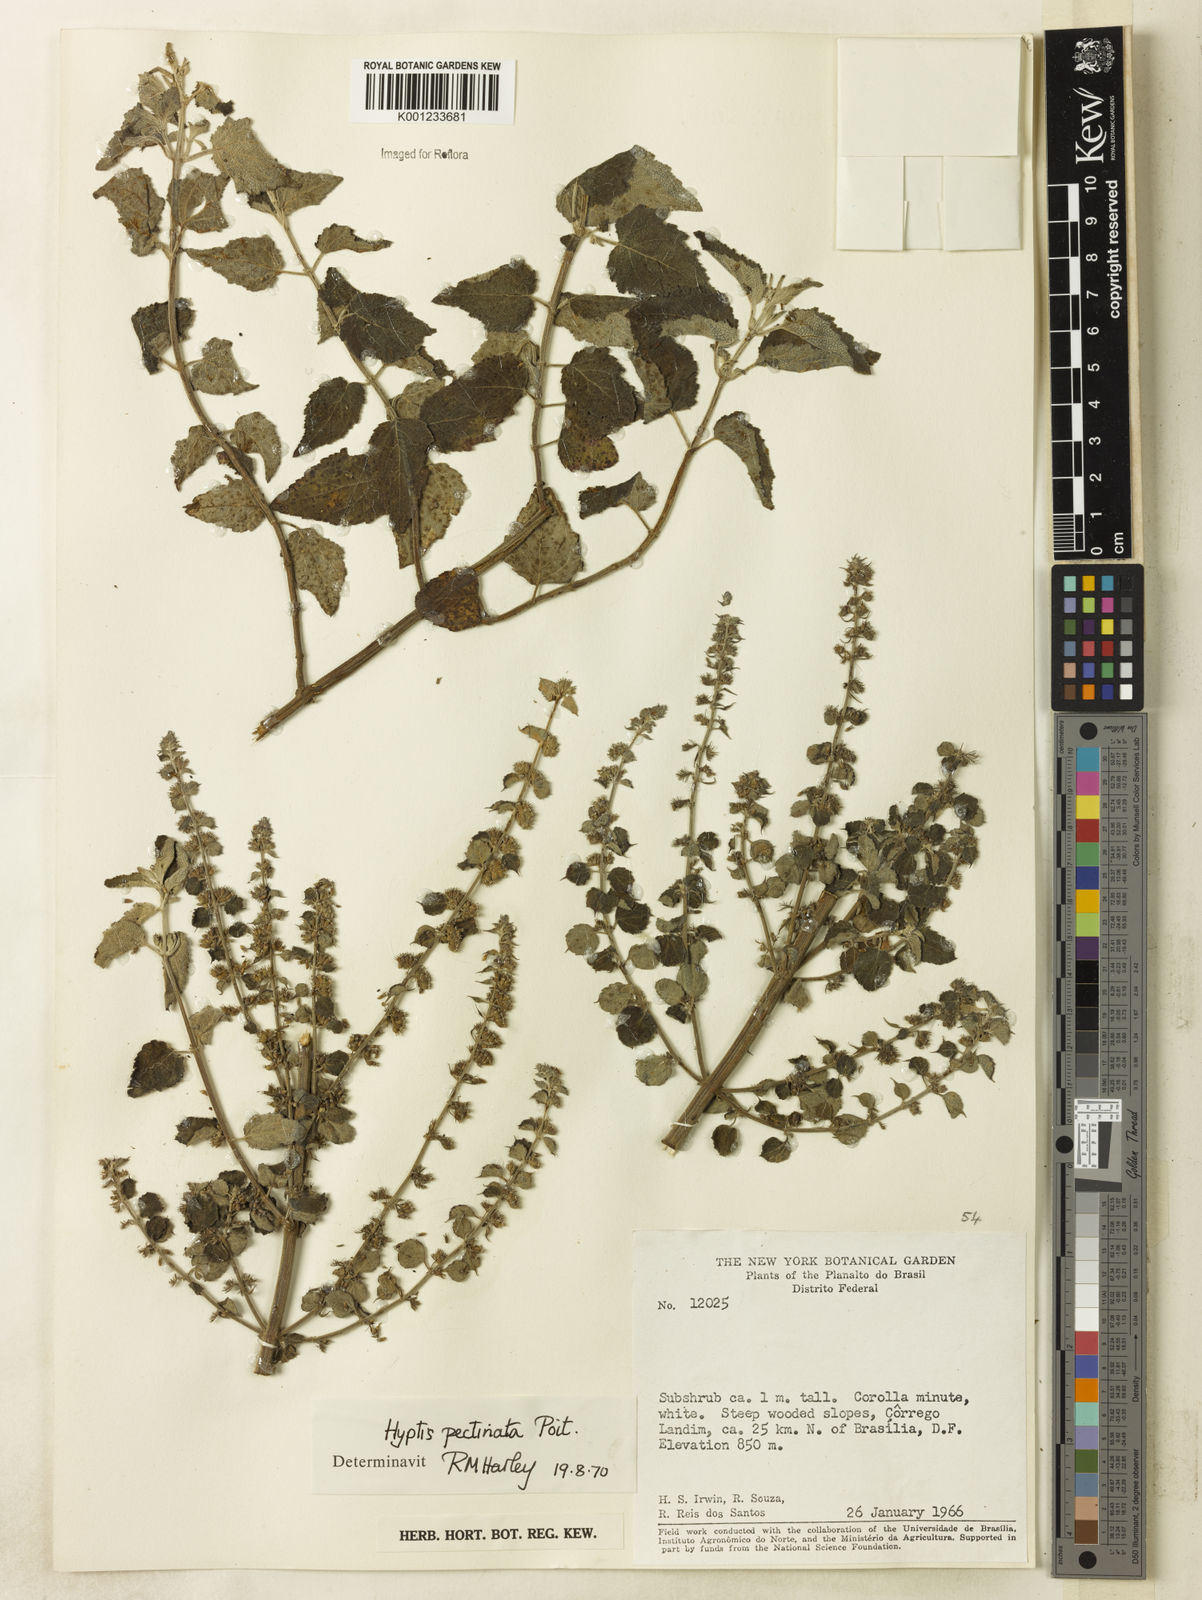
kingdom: Plantae
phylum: Tracheophyta
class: Magnoliopsida
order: Lamiales
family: Lamiaceae
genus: Mesosphaerum
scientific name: Mesosphaerum pectinatum
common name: Comb hyptis
